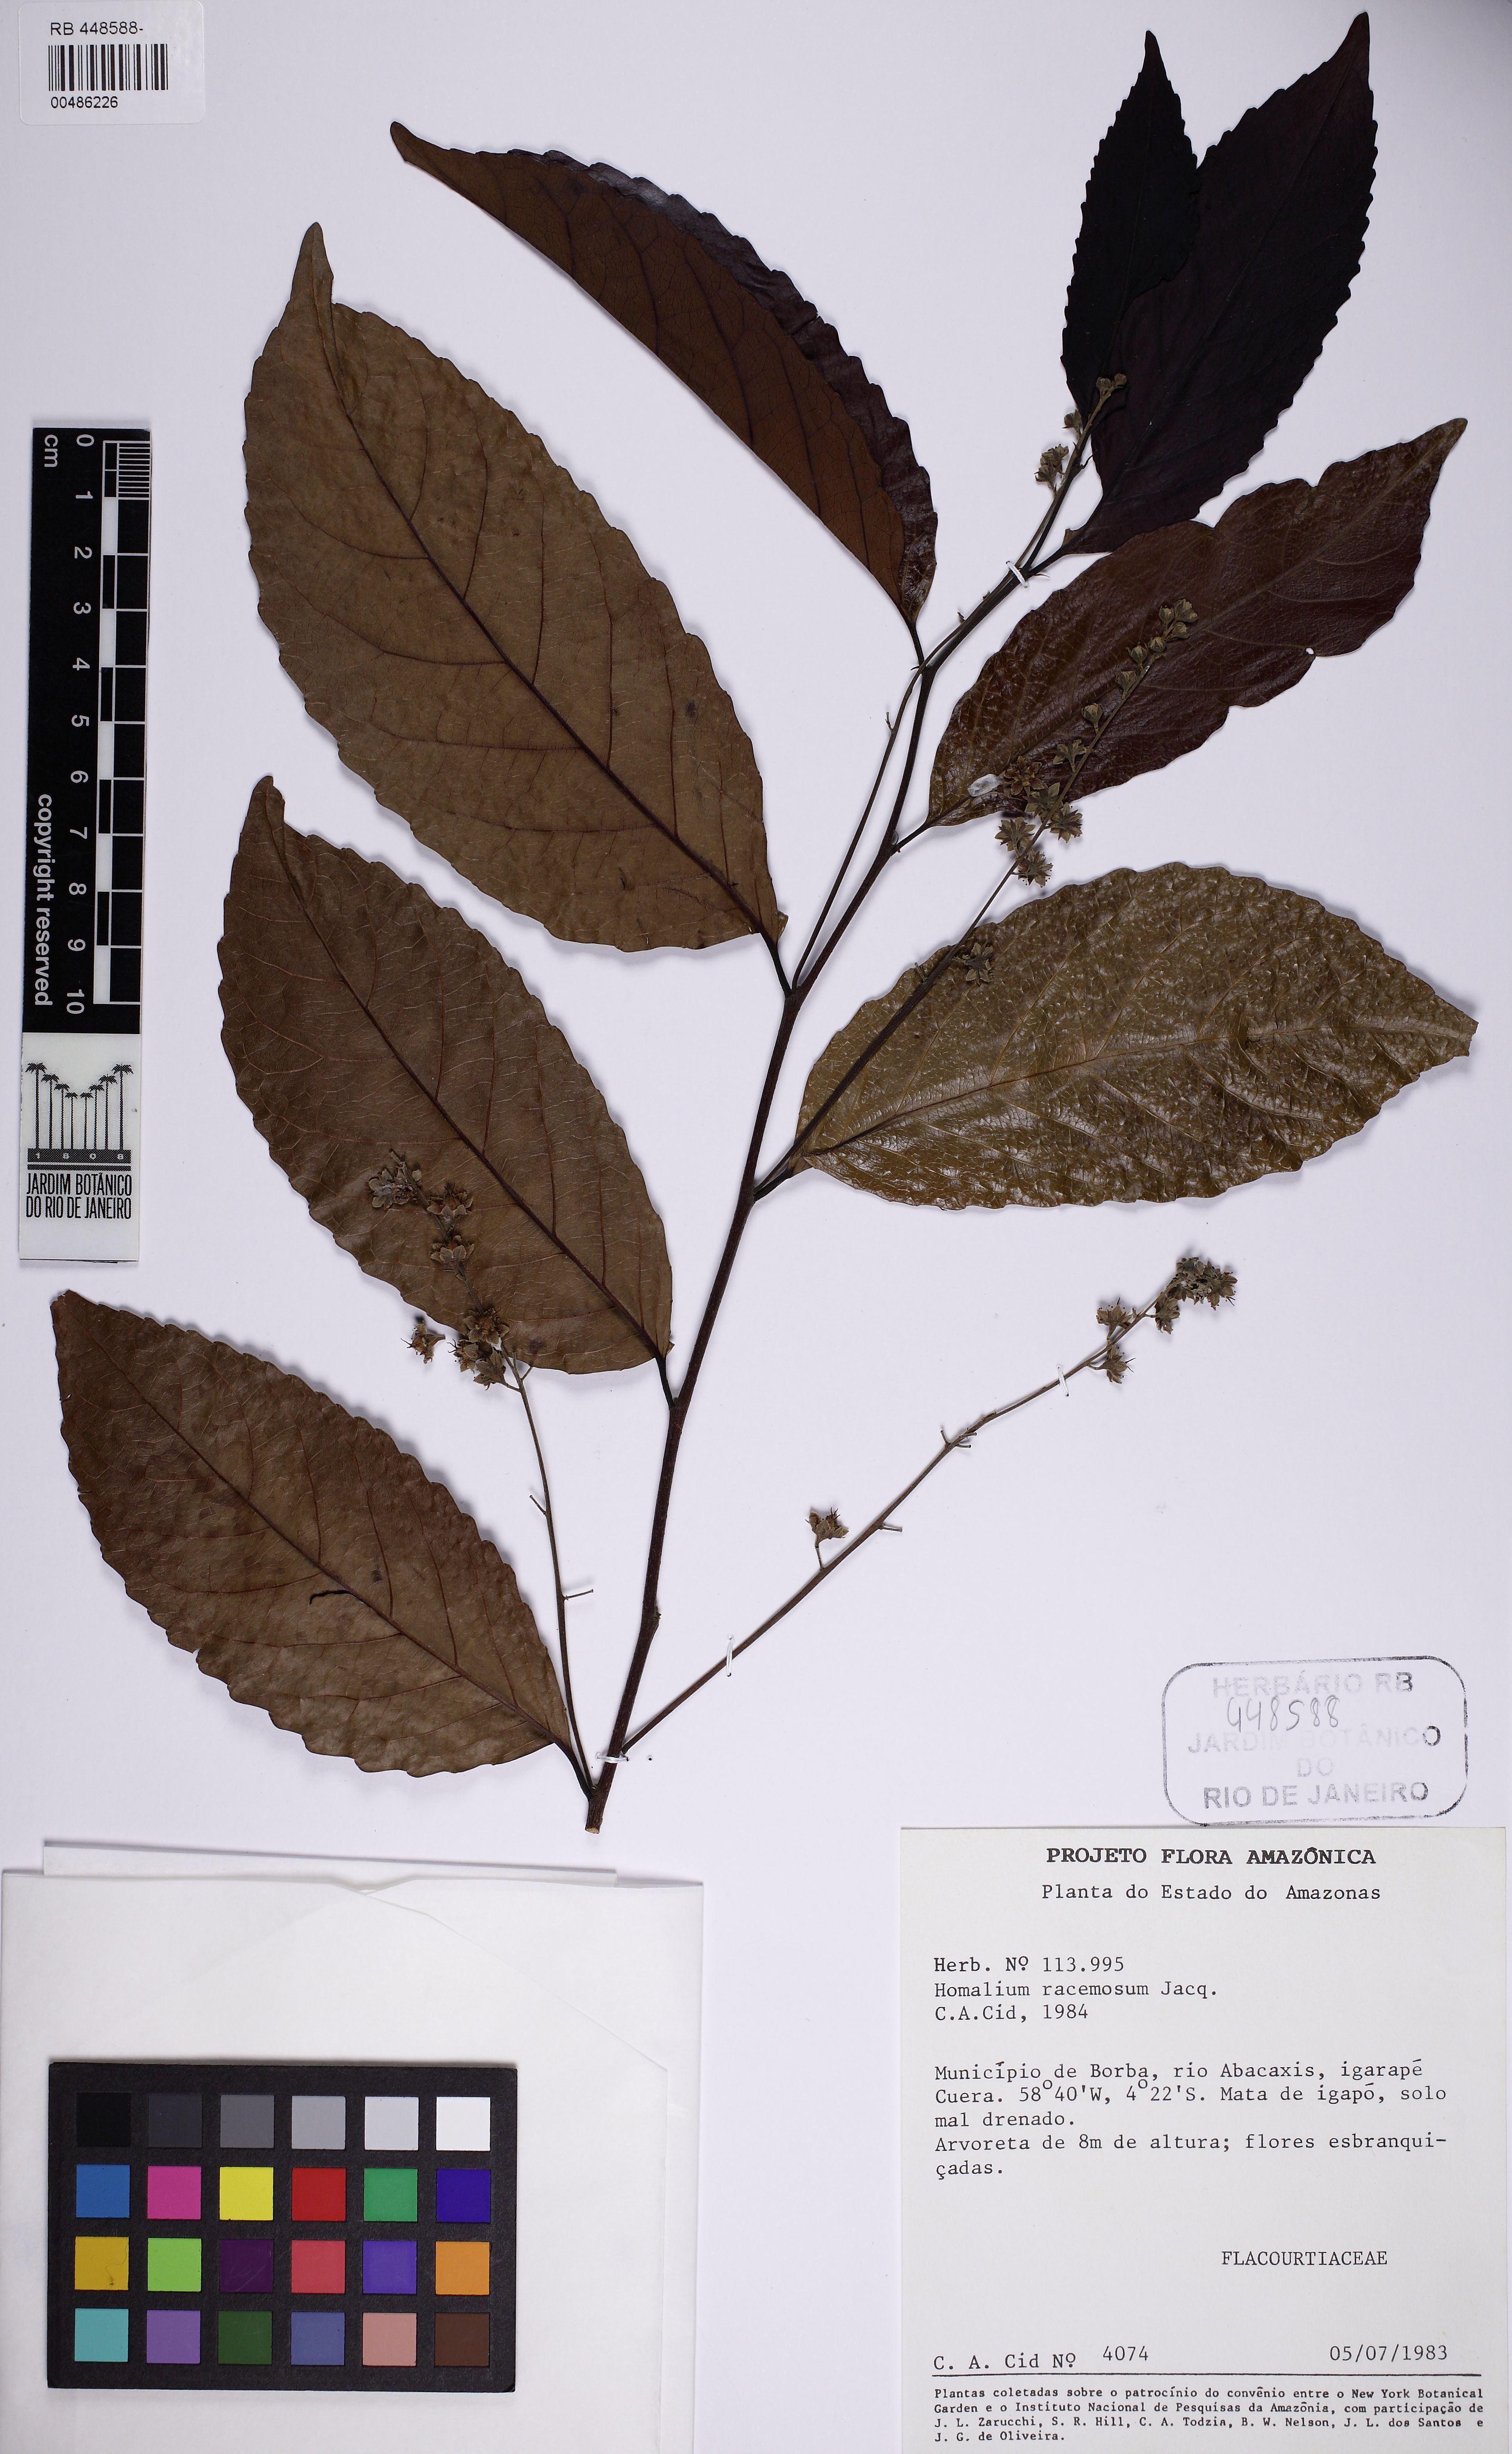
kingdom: Plantae
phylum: Tracheophyta
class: Magnoliopsida
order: Malpighiales
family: Salicaceae
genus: Homalium
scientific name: Homalium racemosum
